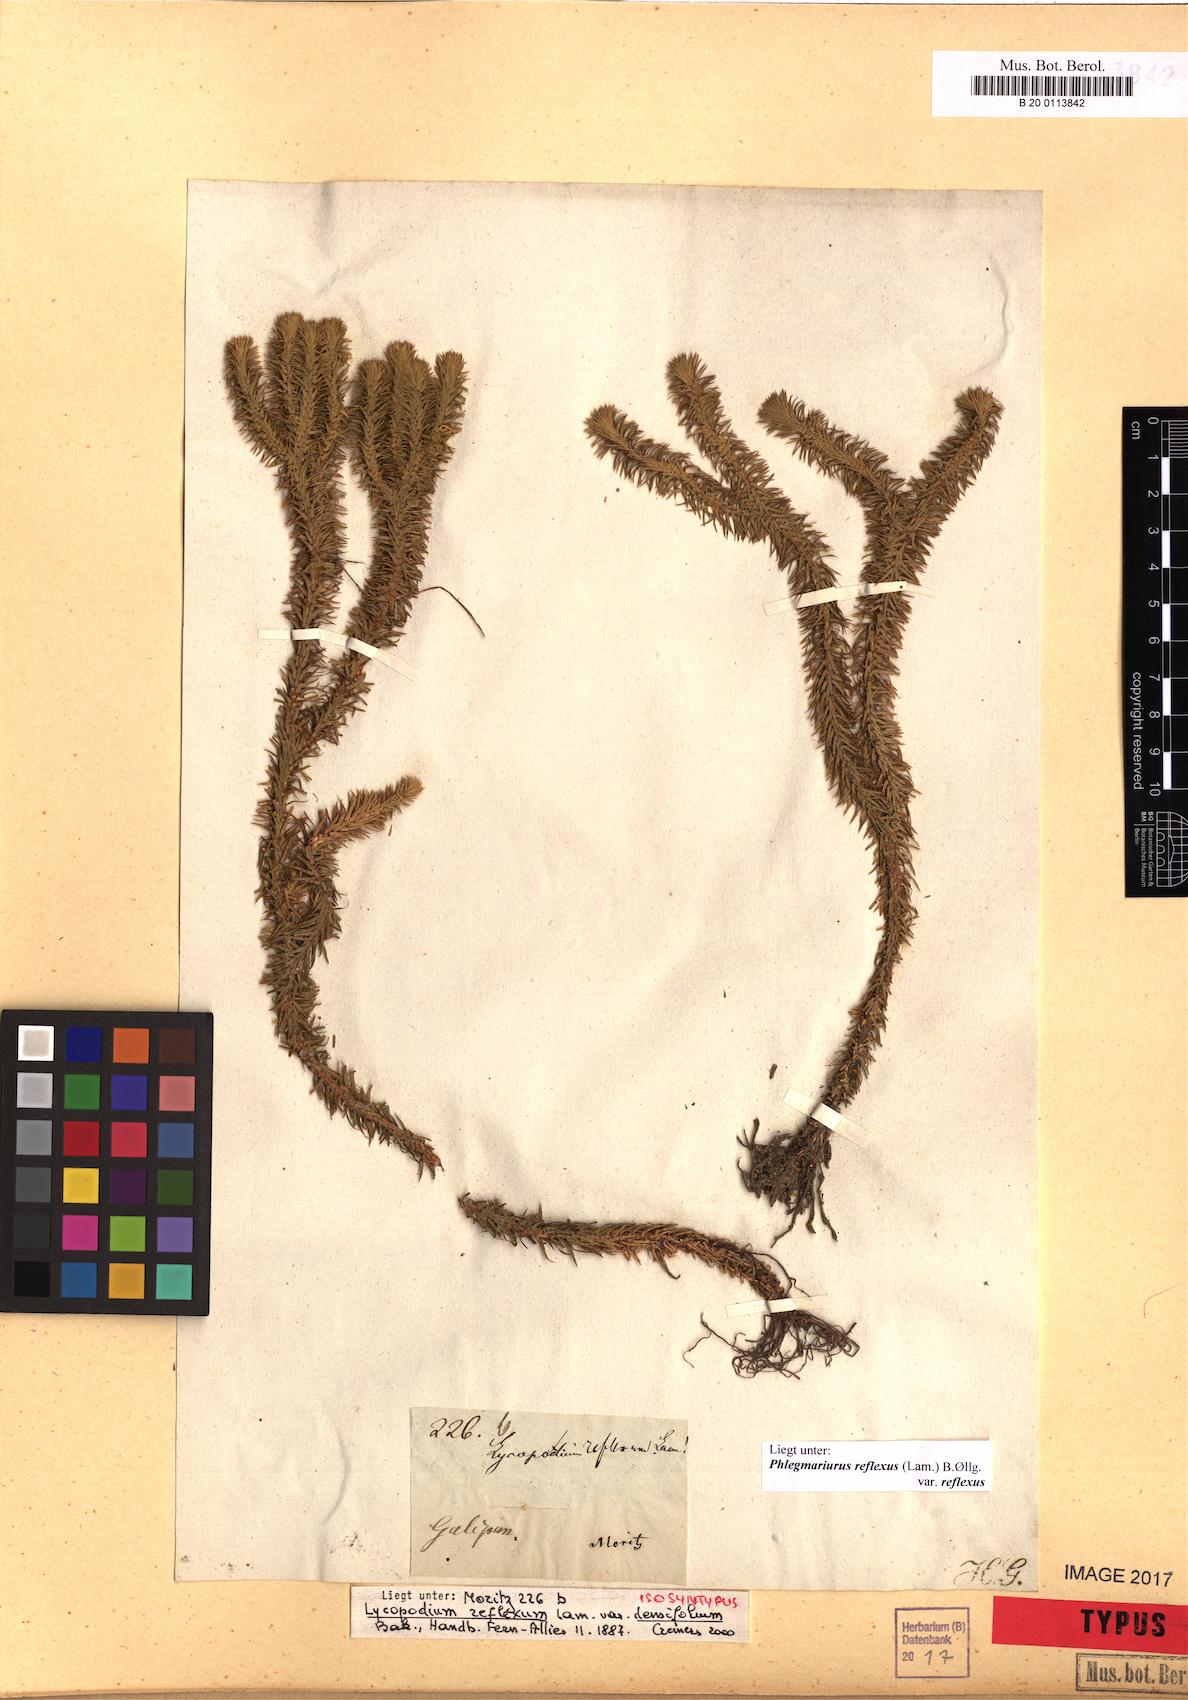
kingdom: Plantae
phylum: Tracheophyta
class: Lycopodiopsida
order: Lycopodiales
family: Lycopodiaceae
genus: Phlegmariurus
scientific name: Phlegmariurus reflexus
